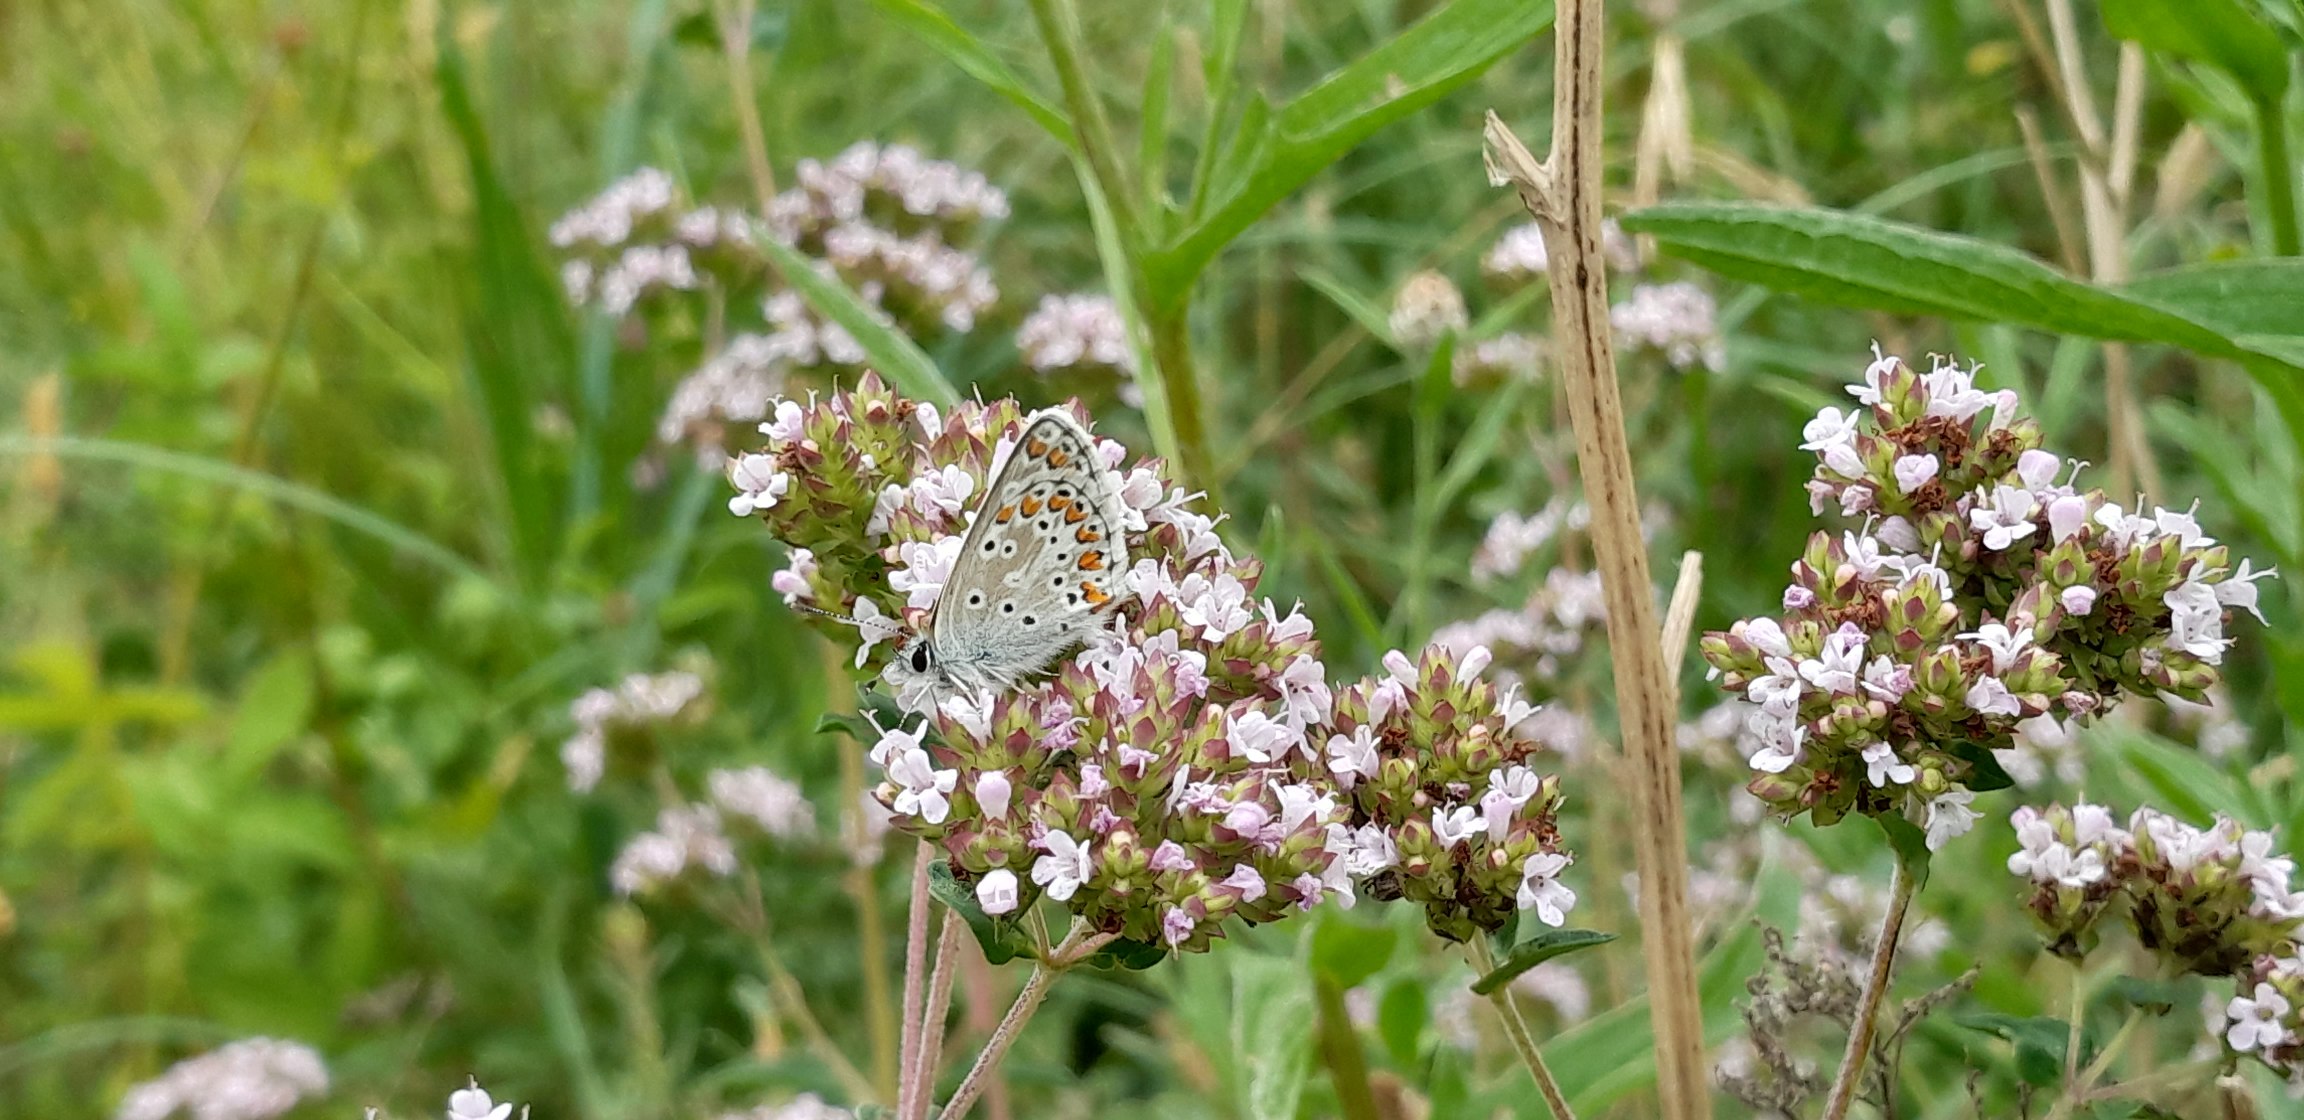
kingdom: Animalia
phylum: Arthropoda
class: Insecta
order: Lepidoptera
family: Lycaenidae
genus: Aricia
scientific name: Aricia agestis
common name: Rødplettet blåfugl
